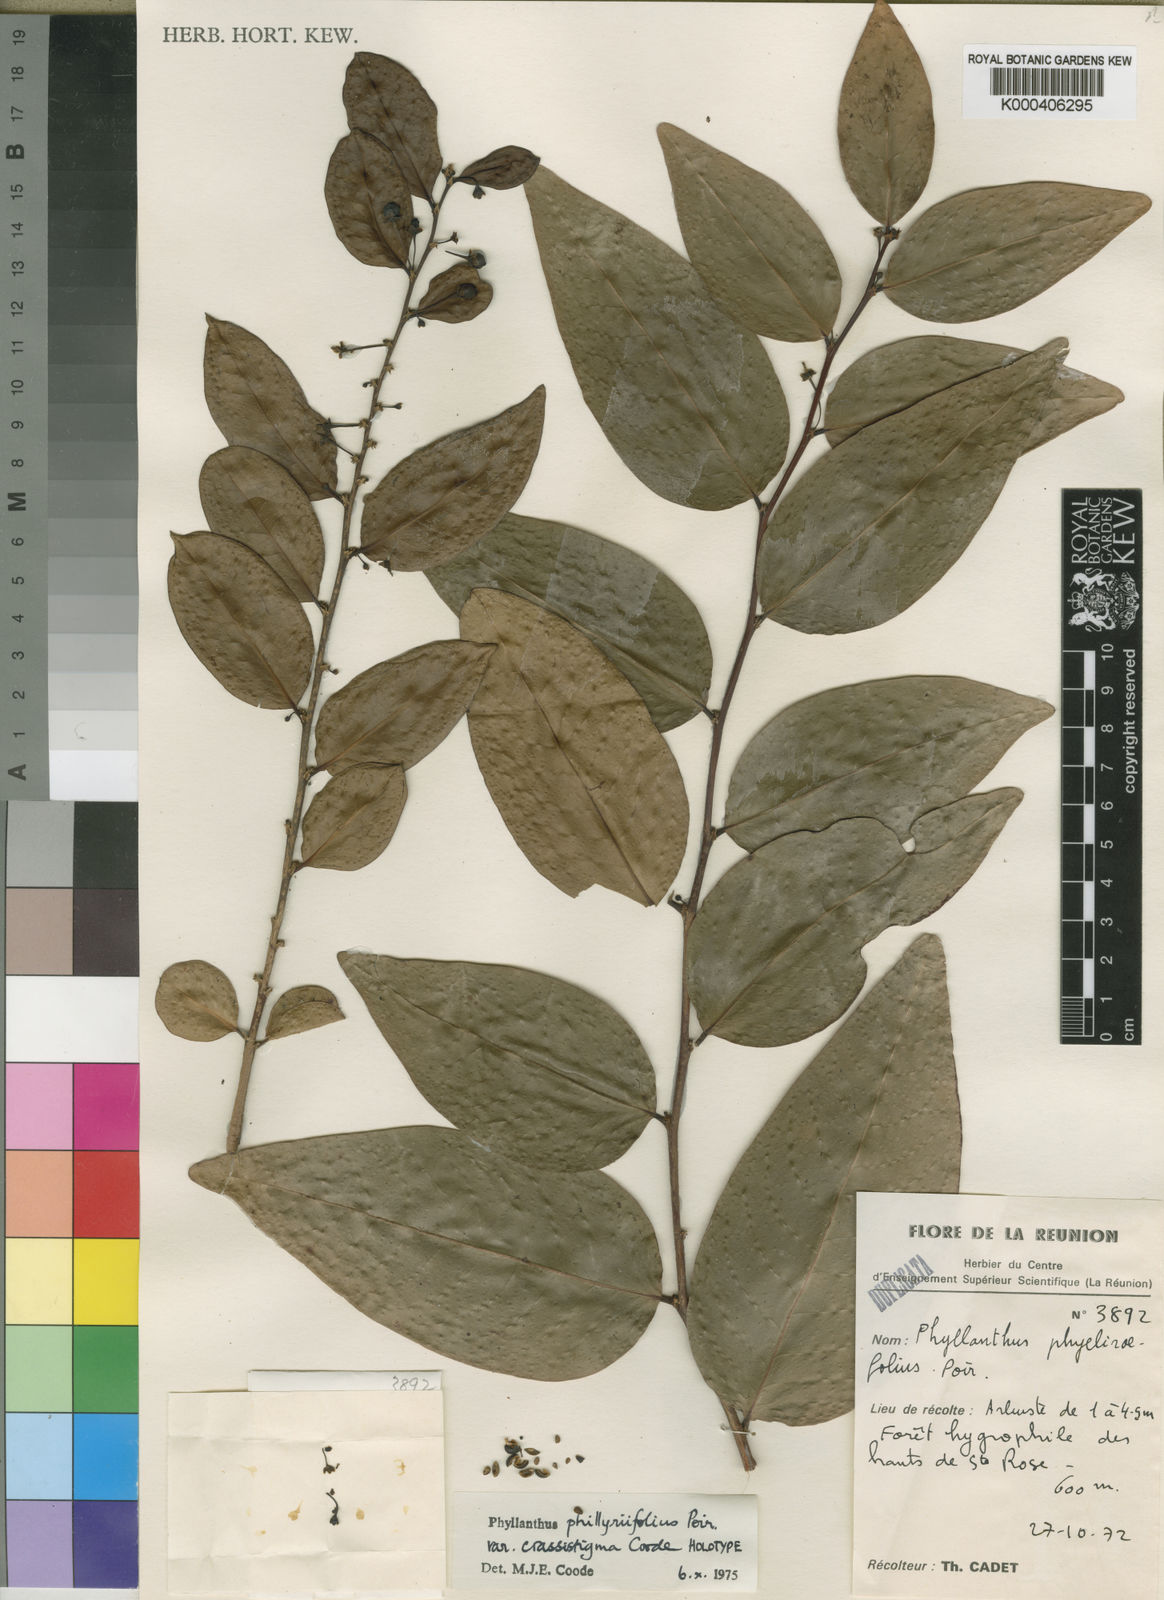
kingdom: Plantae
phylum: Tracheophyta
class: Magnoliopsida
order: Malpighiales
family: Phyllanthaceae
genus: Phyllanthus
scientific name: Phyllanthus phillyreifolius
